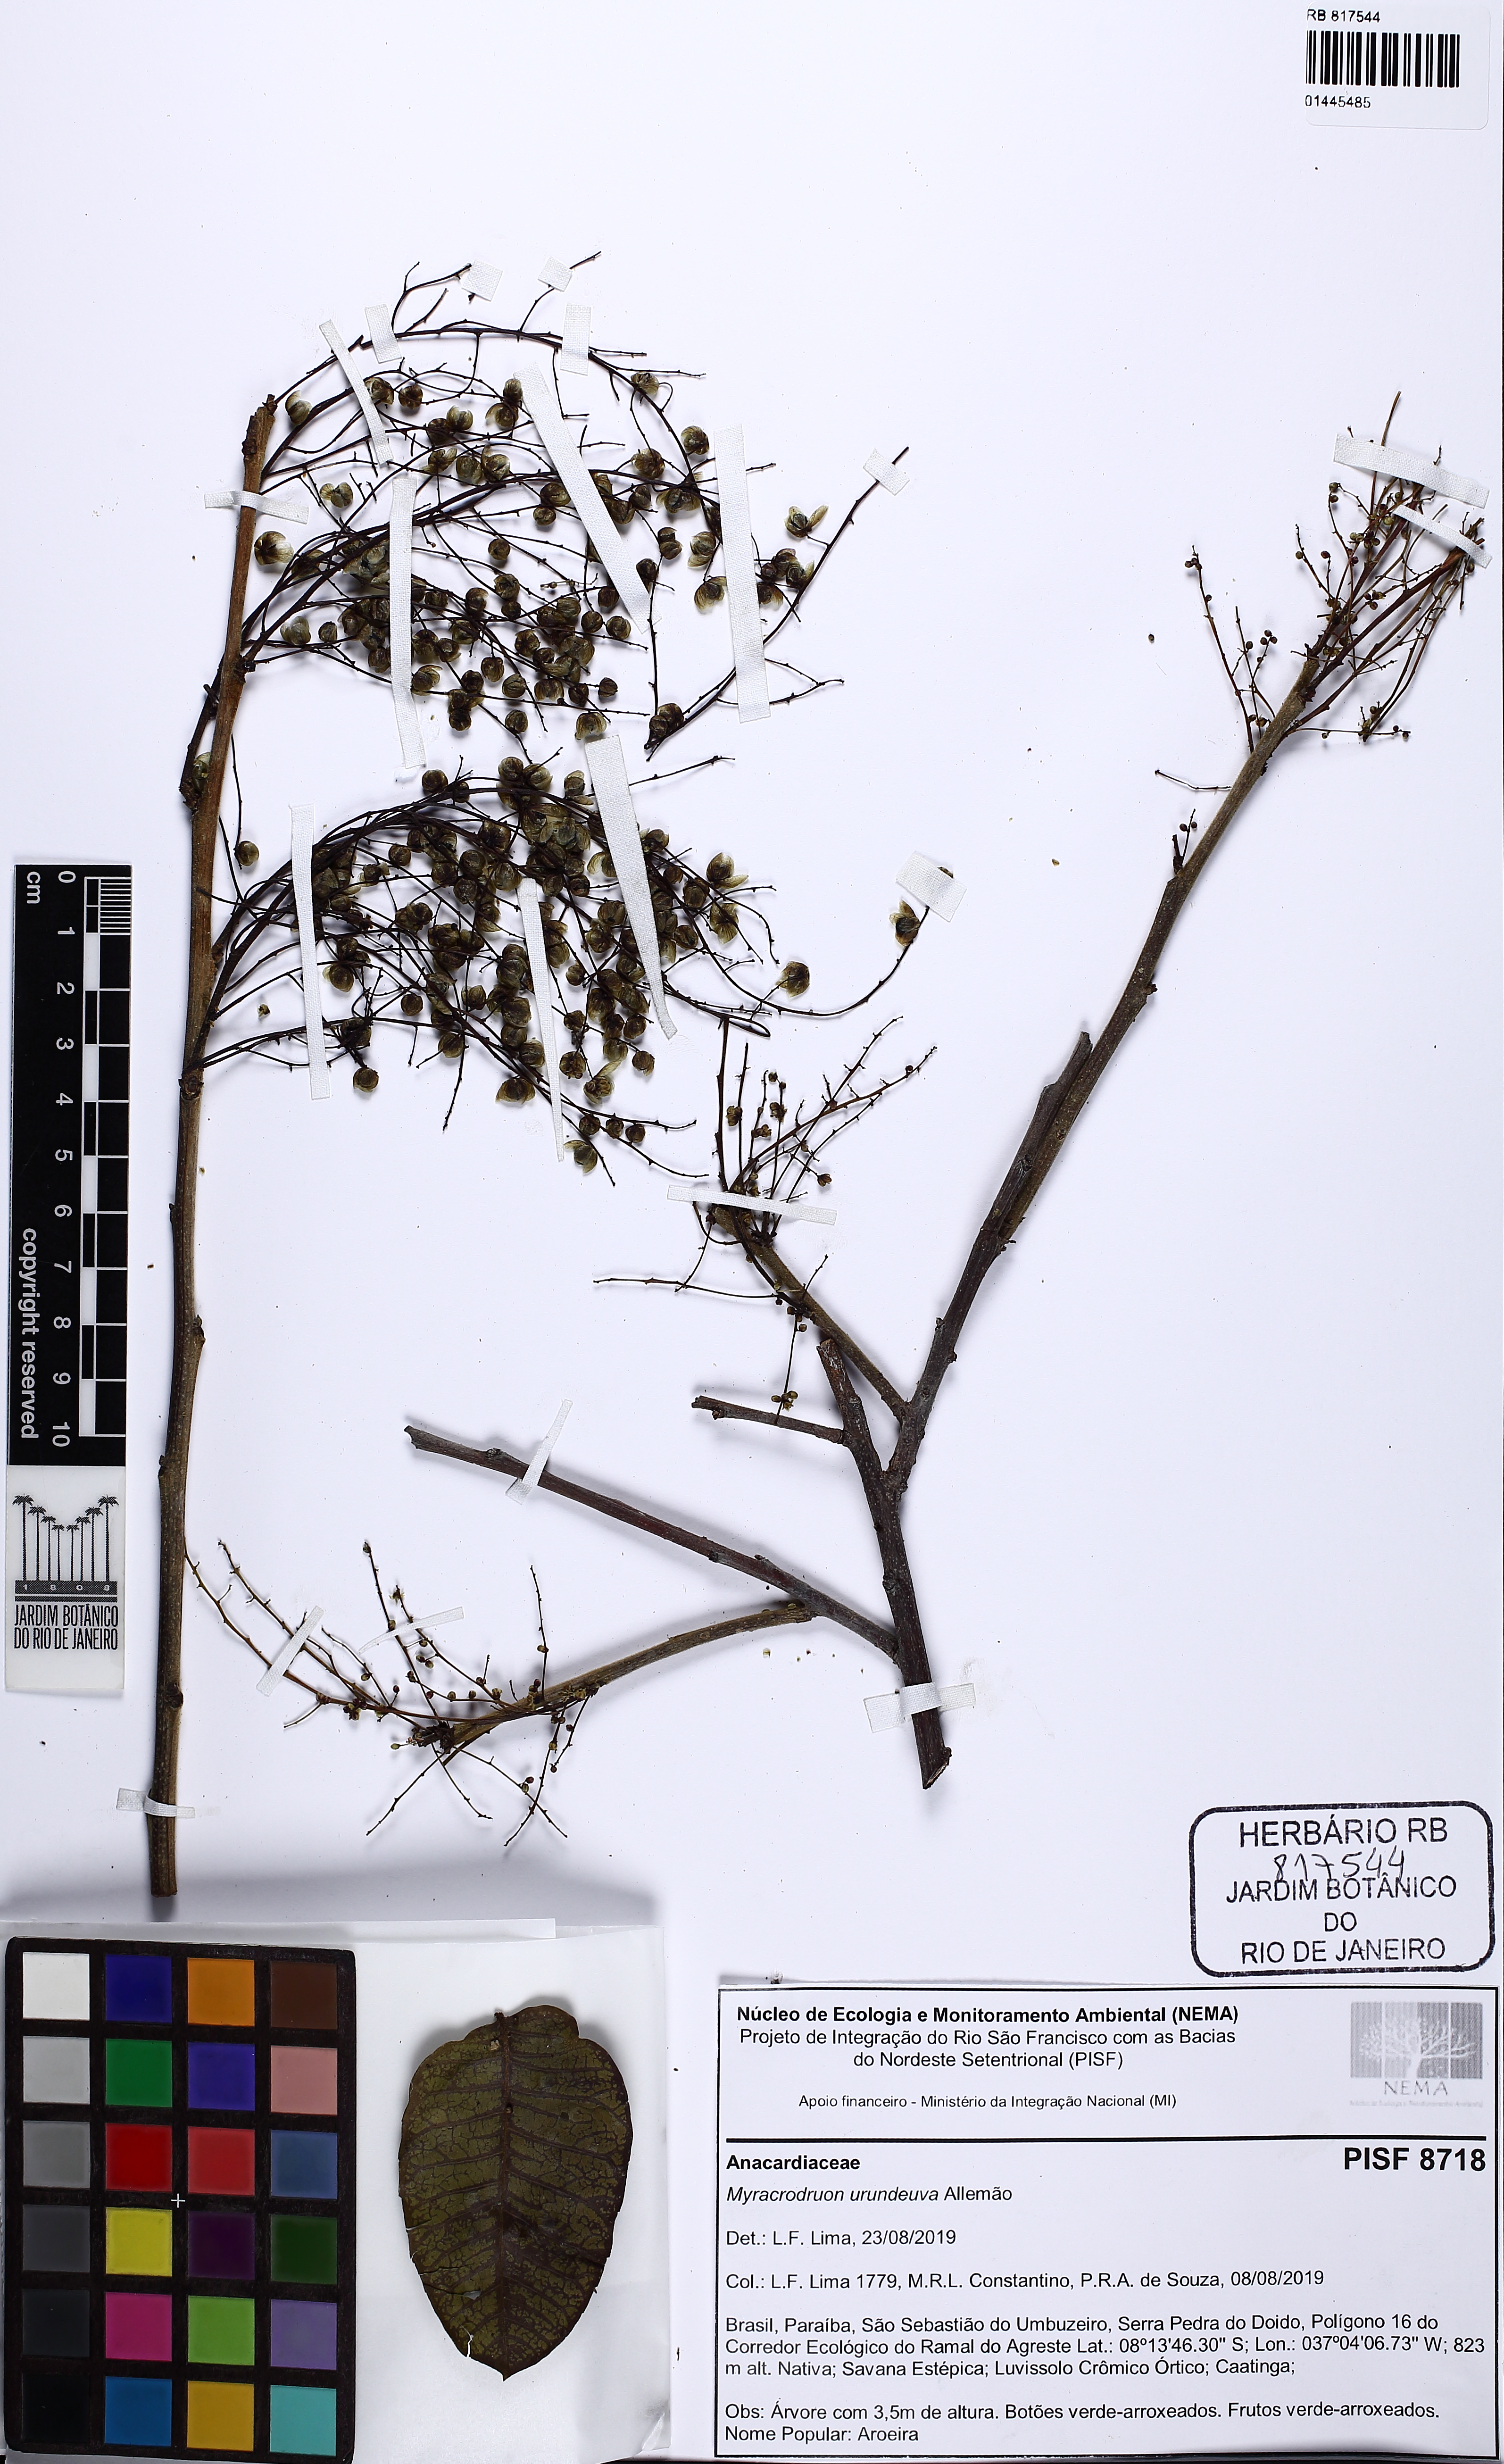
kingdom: Plantae
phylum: Tracheophyta
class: Magnoliopsida
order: Sapindales
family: Anacardiaceae
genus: Myracrodruon
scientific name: Myracrodruon urundeuva
